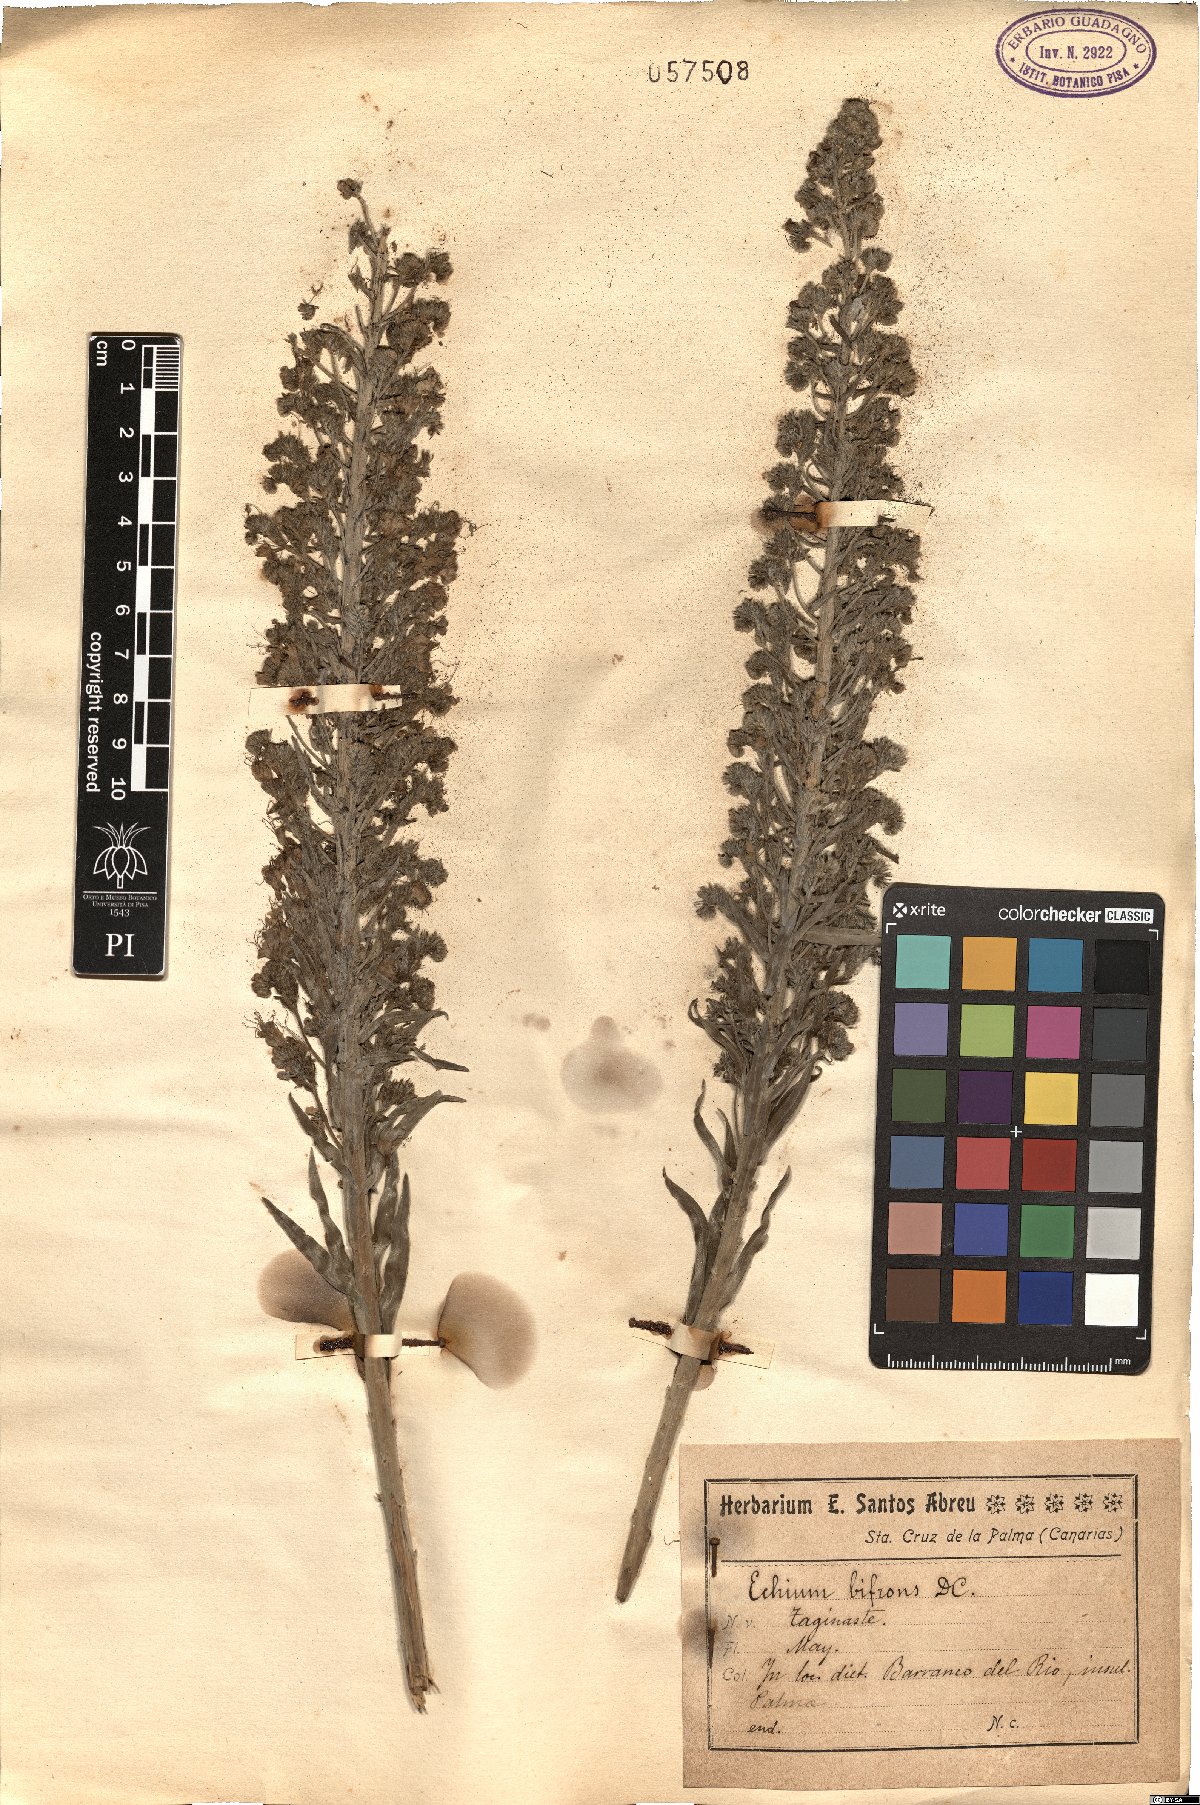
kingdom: Plantae
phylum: Tracheophyta
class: Magnoliopsida
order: Boraginales
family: Boraginaceae
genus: Echium
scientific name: Echium webbii
